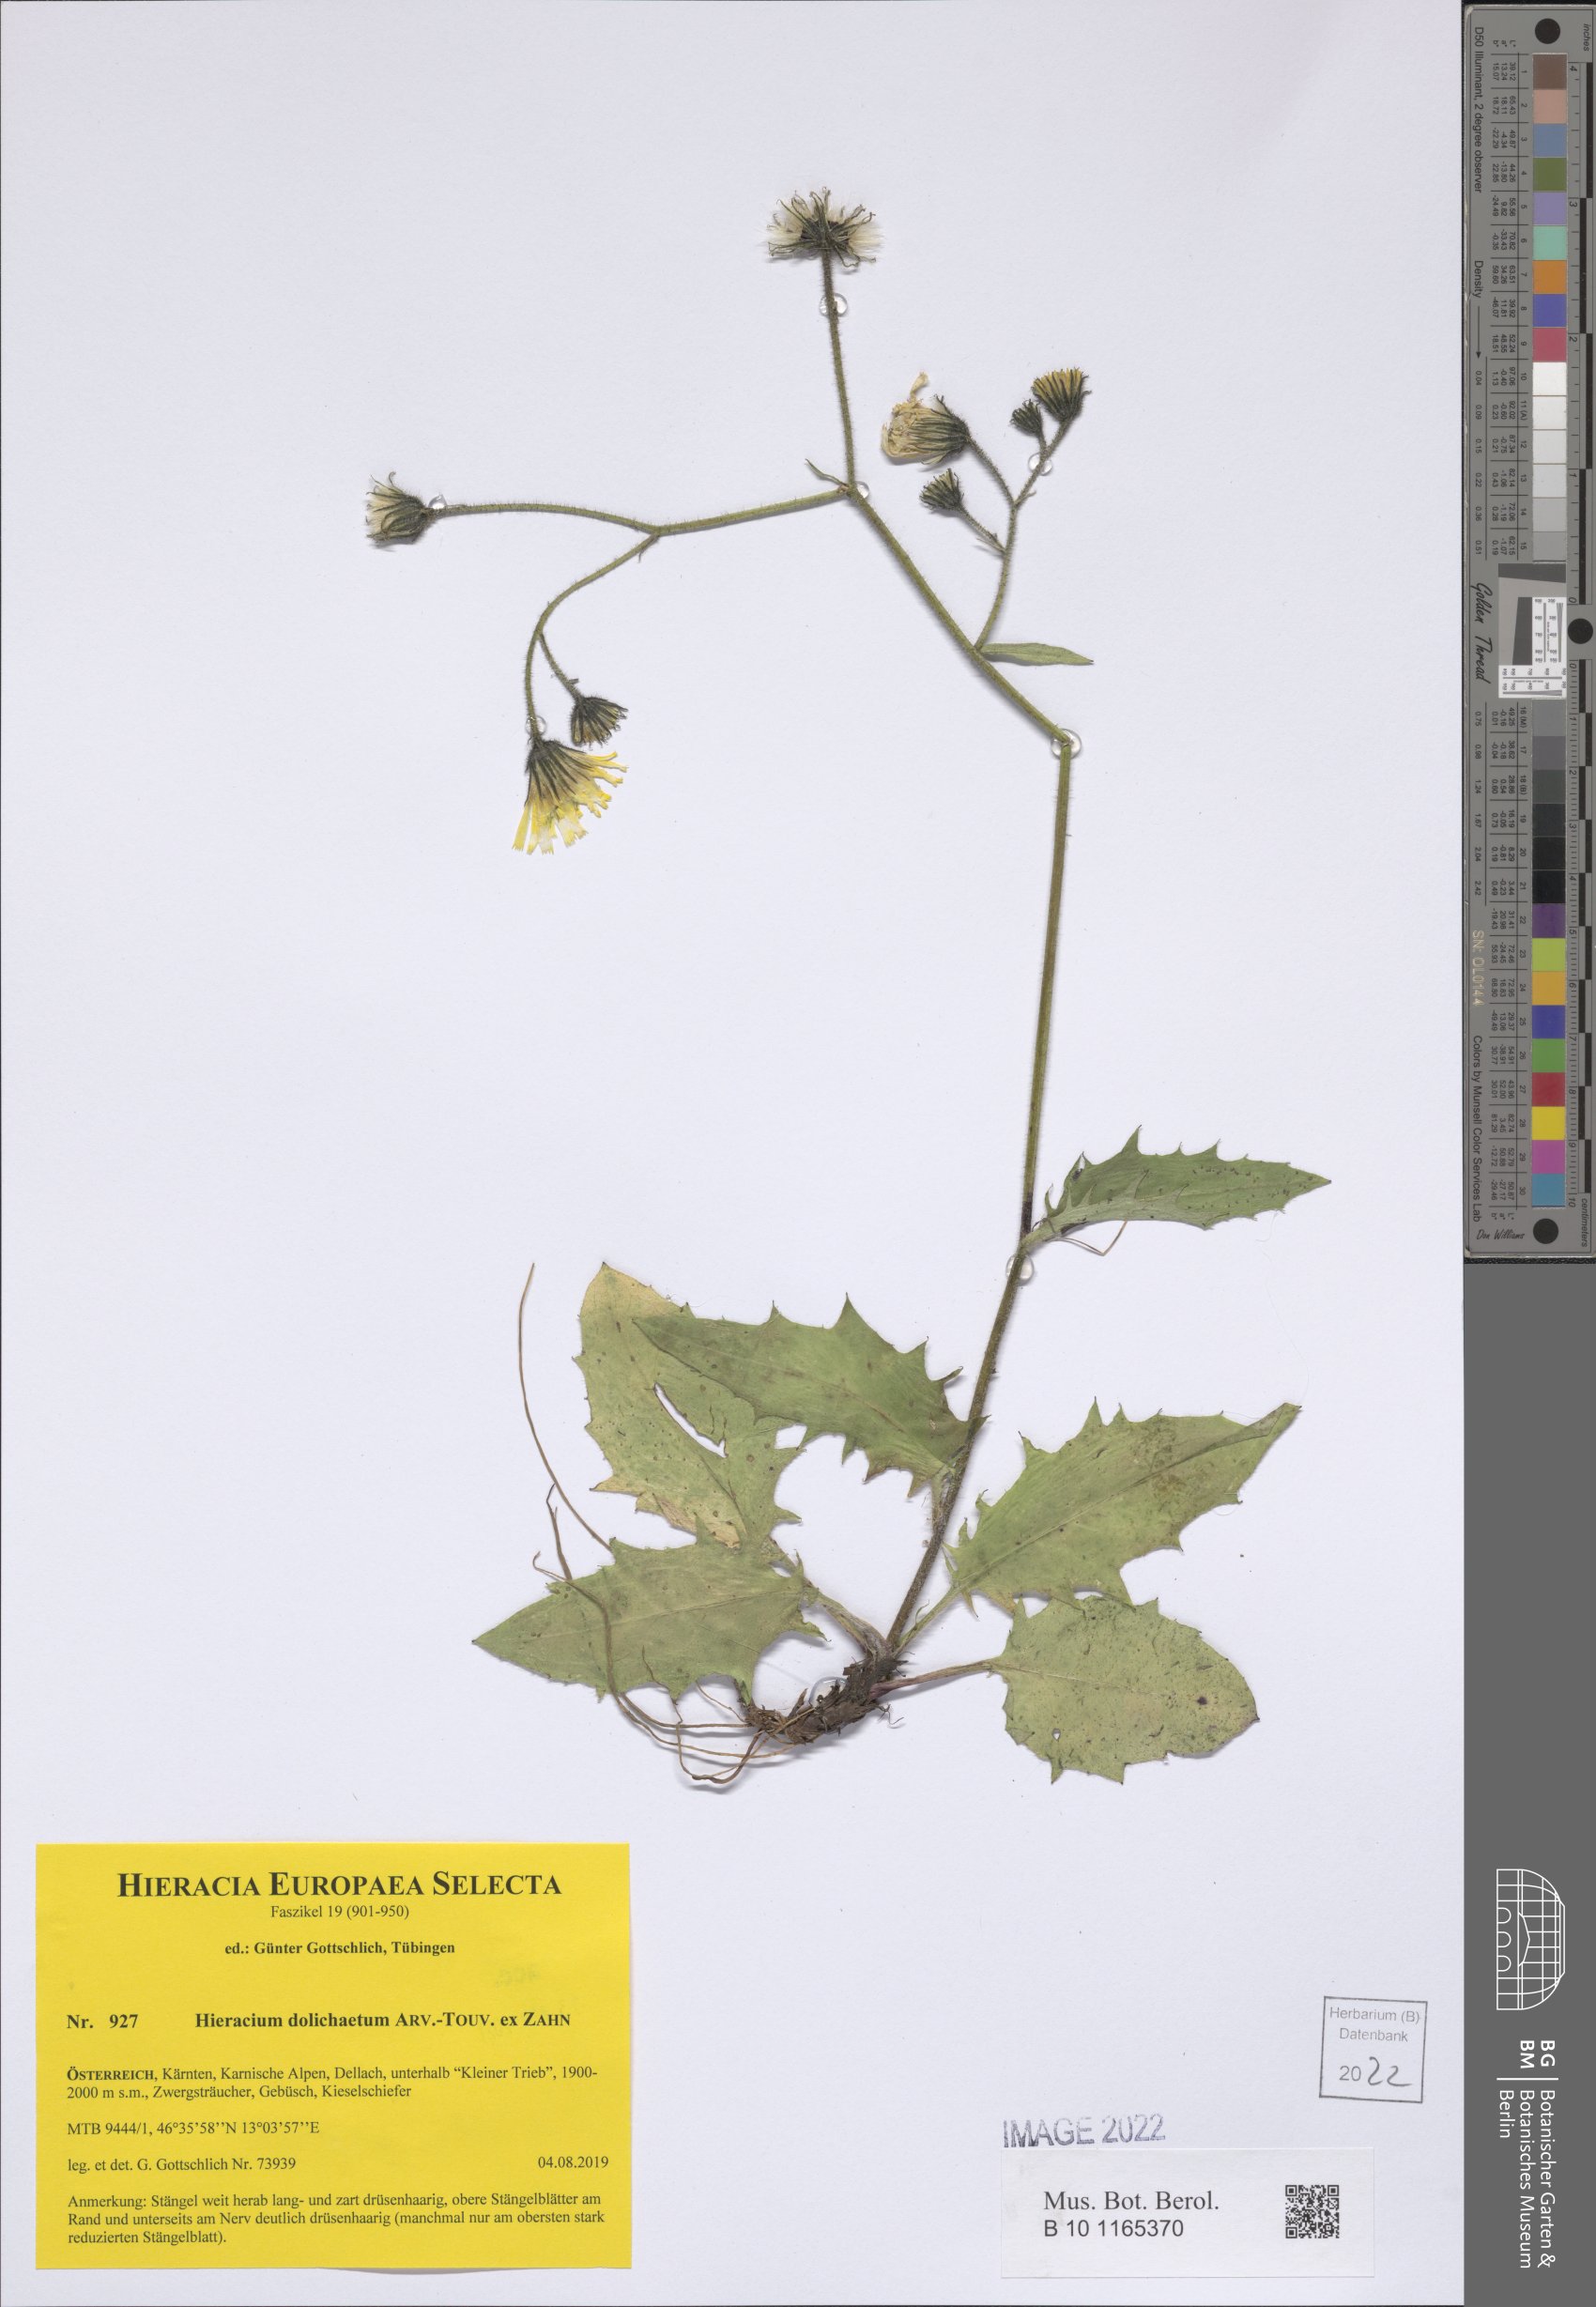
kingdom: Plantae
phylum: Tracheophyta
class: Magnoliopsida
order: Asterales
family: Asteraceae
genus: Hieracium
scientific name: Hieracium dolichaetum
